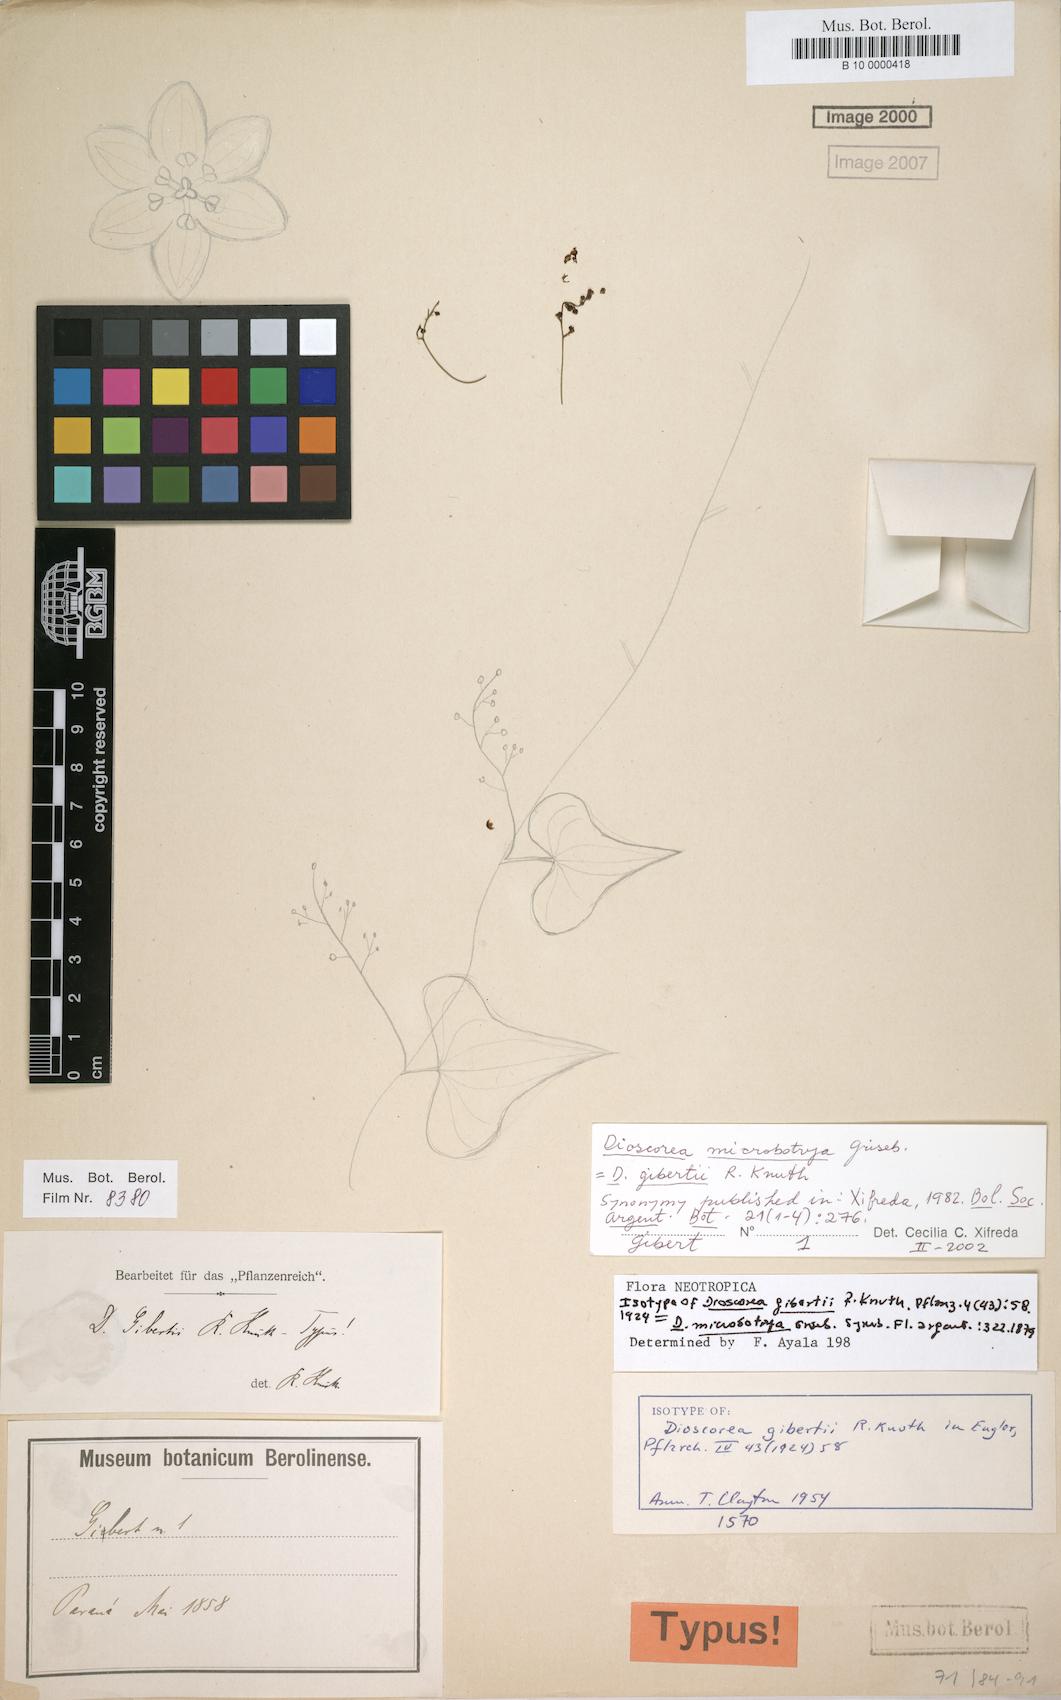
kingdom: Plantae
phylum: Tracheophyta
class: Liliopsida
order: Dioscoreales
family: Dioscoreaceae
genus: Dioscorea
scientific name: Dioscorea microbotrya
